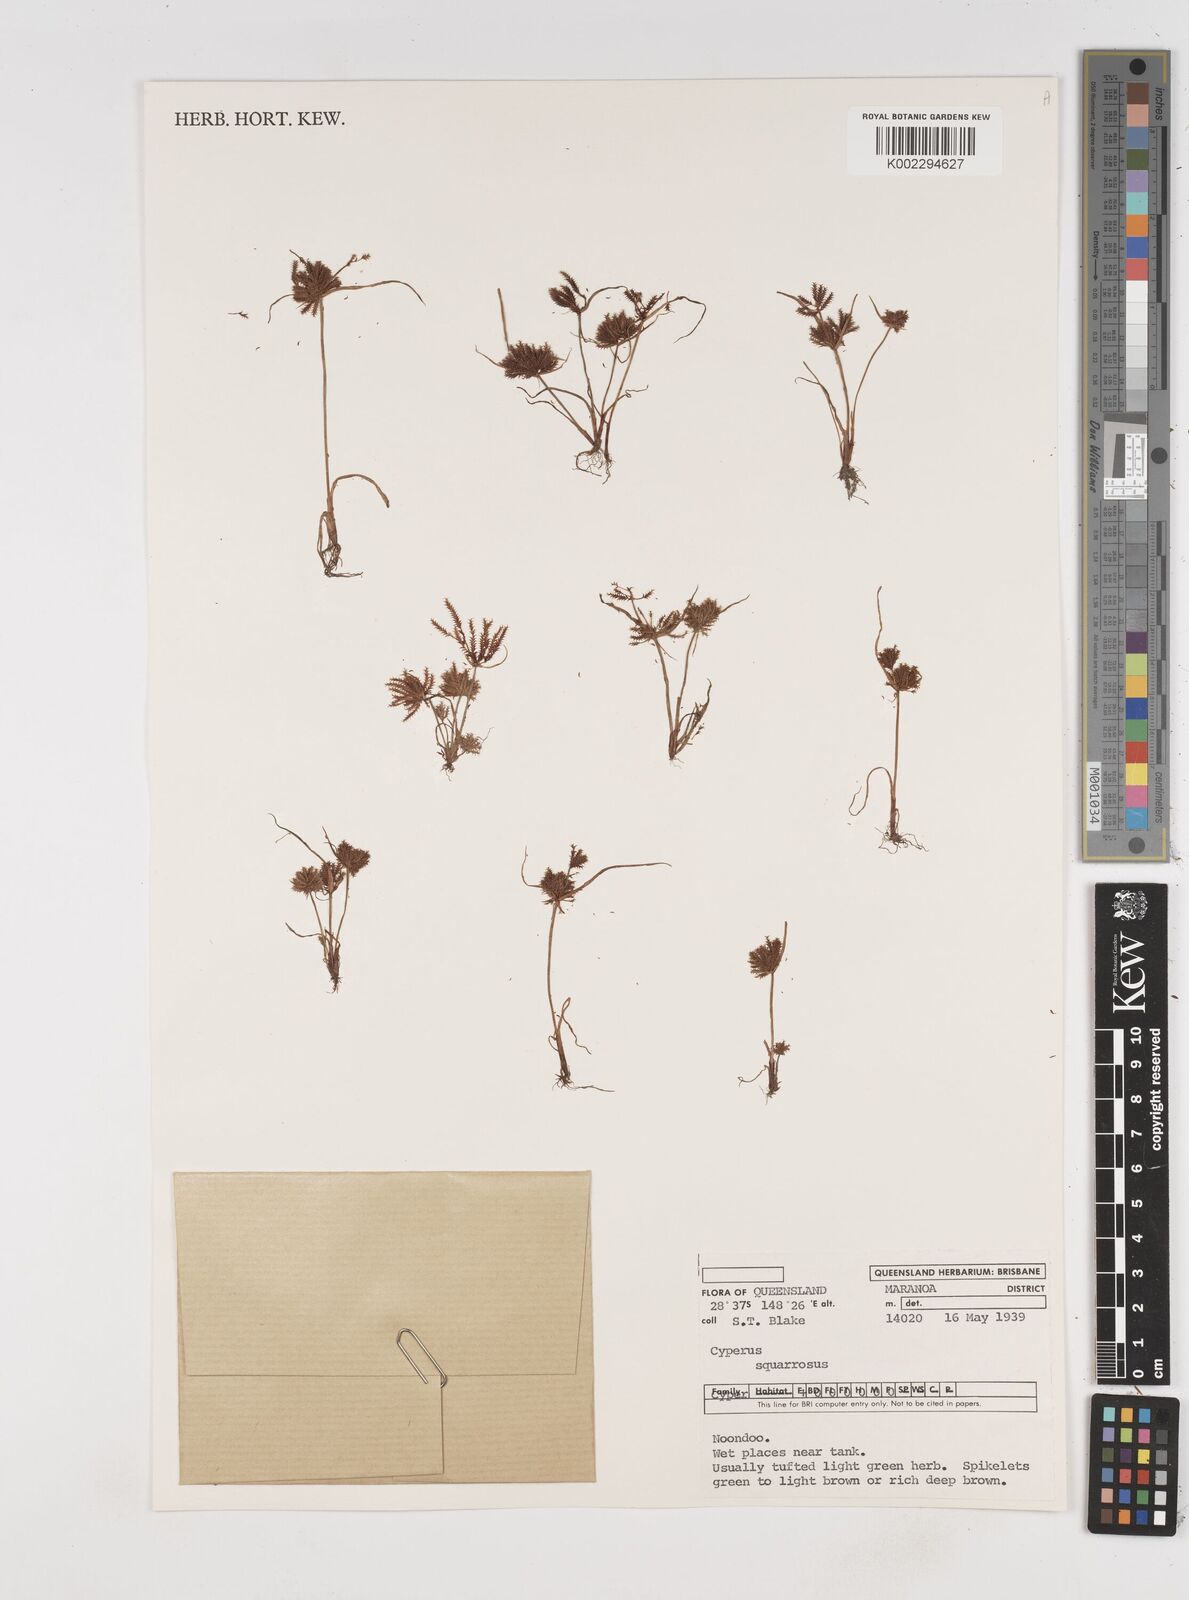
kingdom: Plantae
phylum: Tracheophyta
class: Liliopsida
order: Poales
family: Cyperaceae
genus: Cyperus
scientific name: Cyperus squarrosus
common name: Awned cyperus
